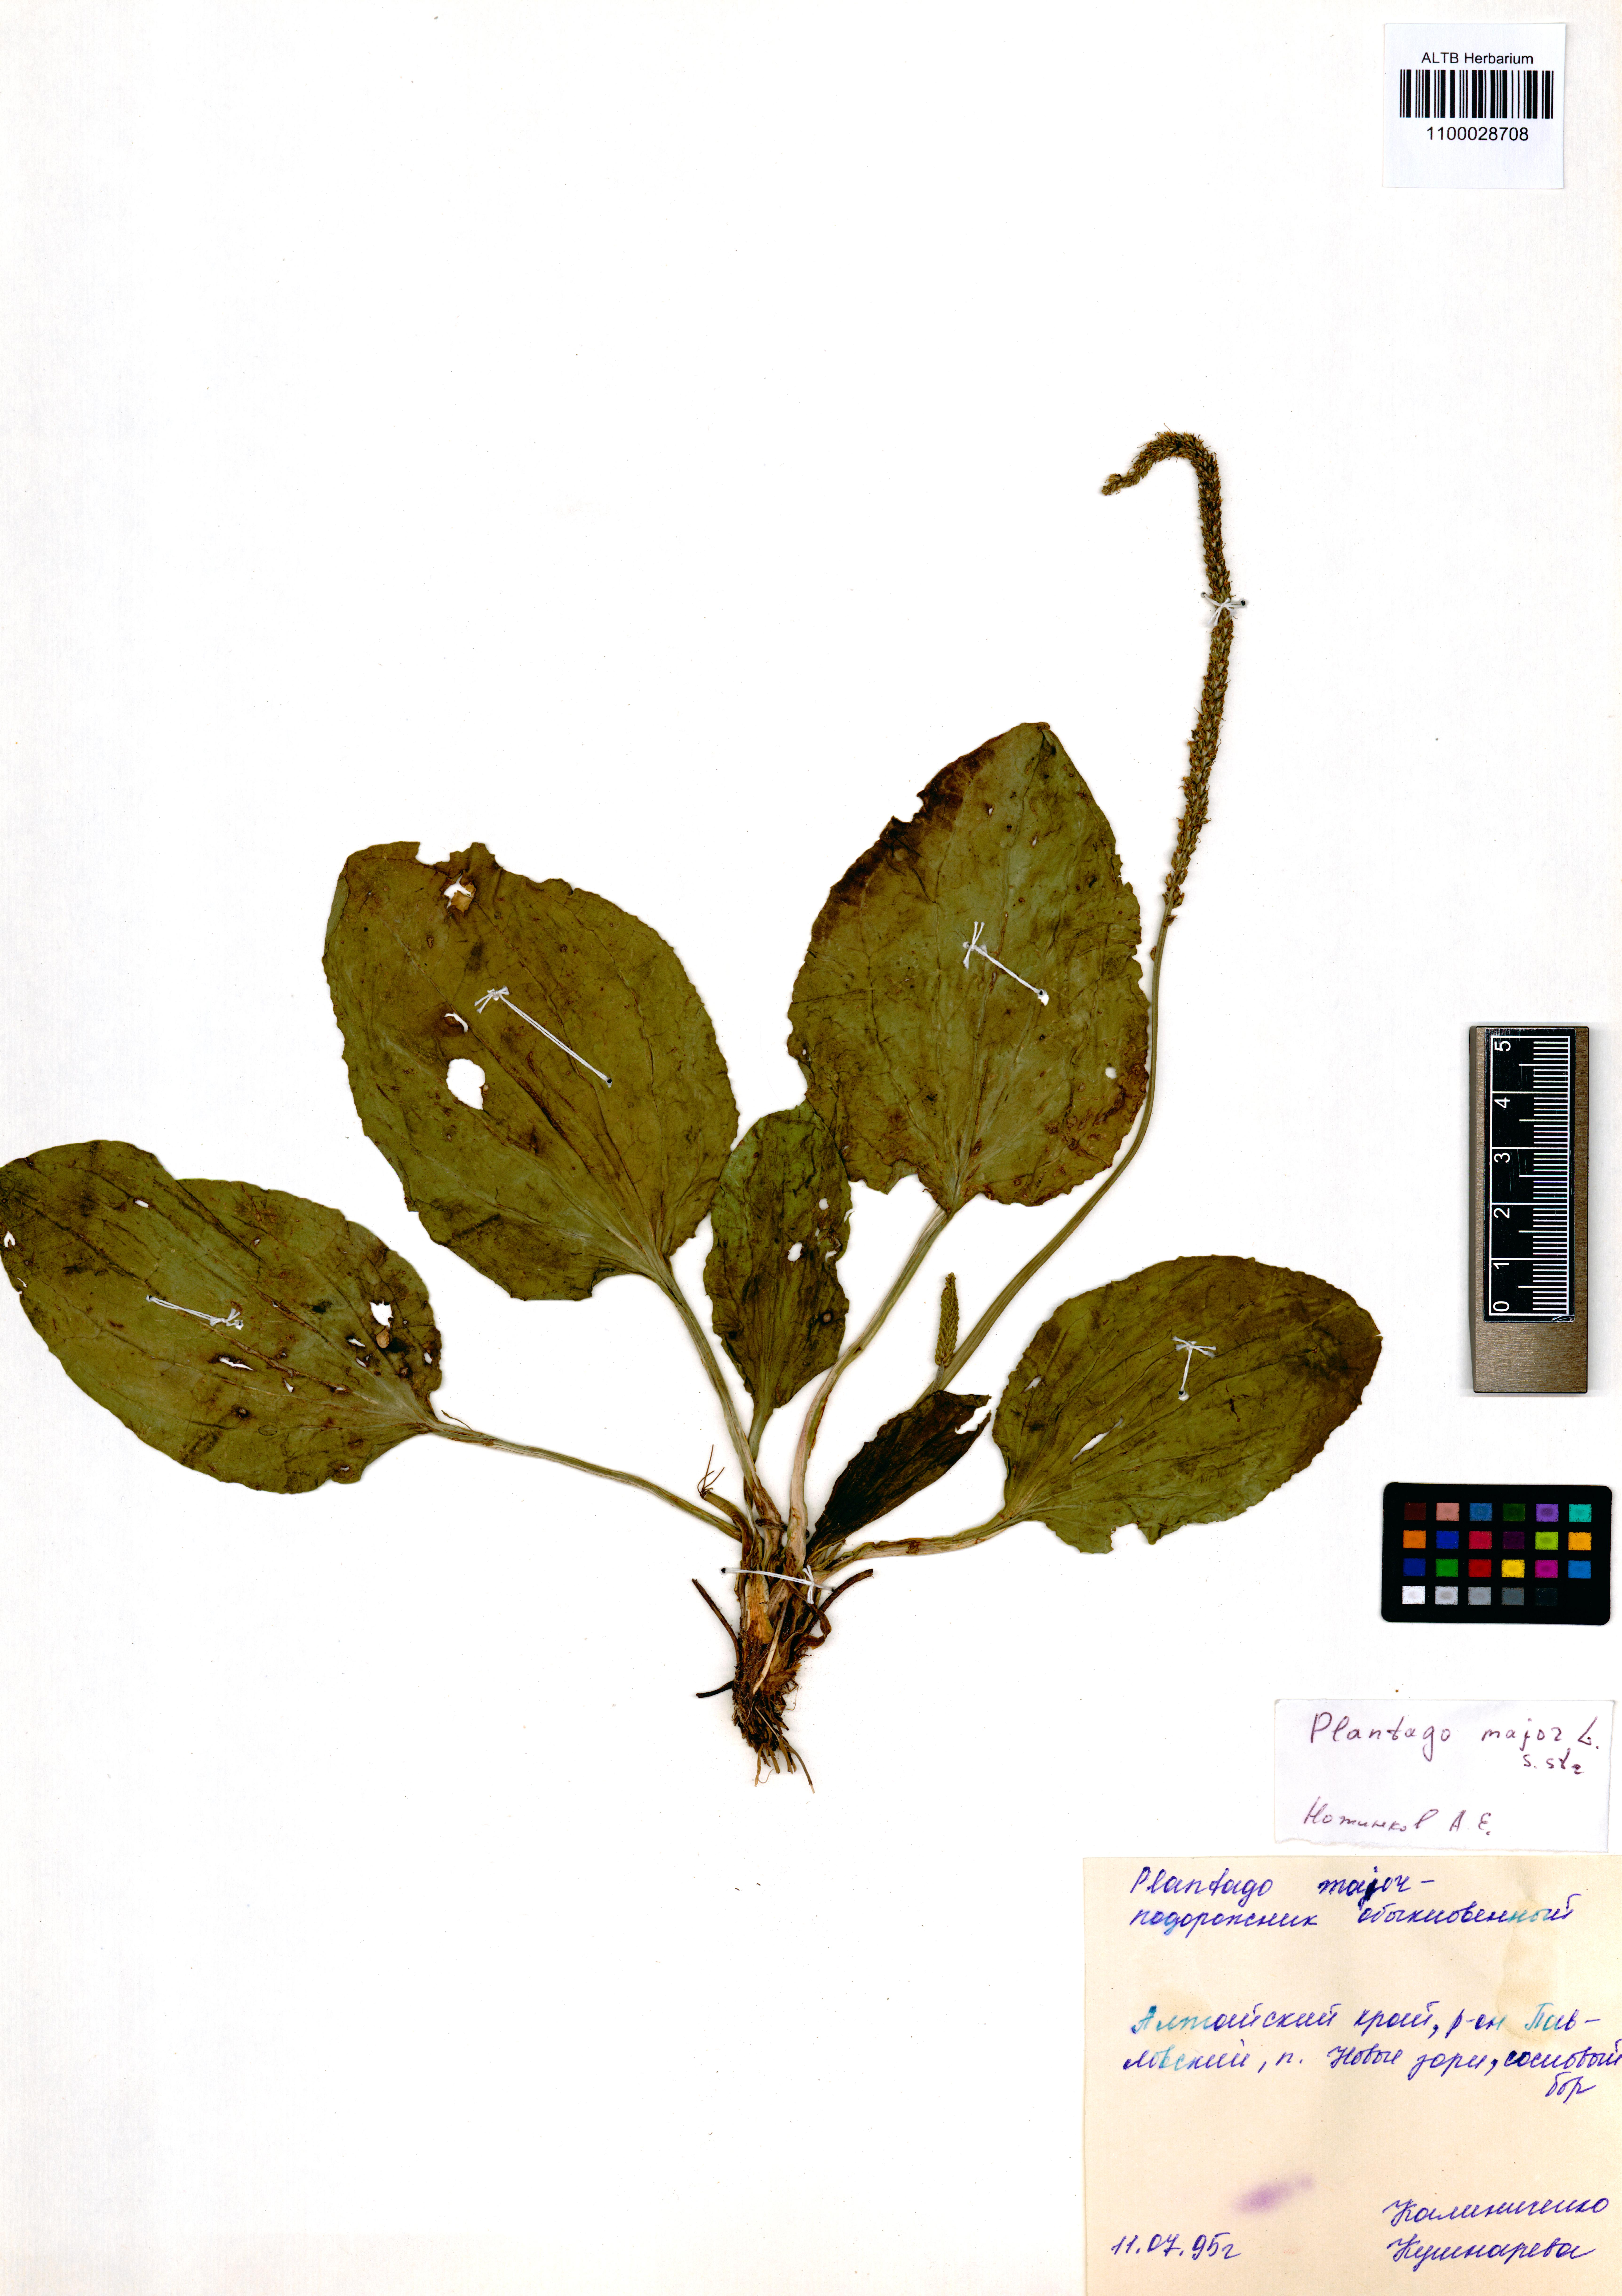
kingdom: Plantae
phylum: Tracheophyta
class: Magnoliopsida
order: Lamiales
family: Plantaginaceae
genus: Plantago
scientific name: Plantago major
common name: Common plantain
